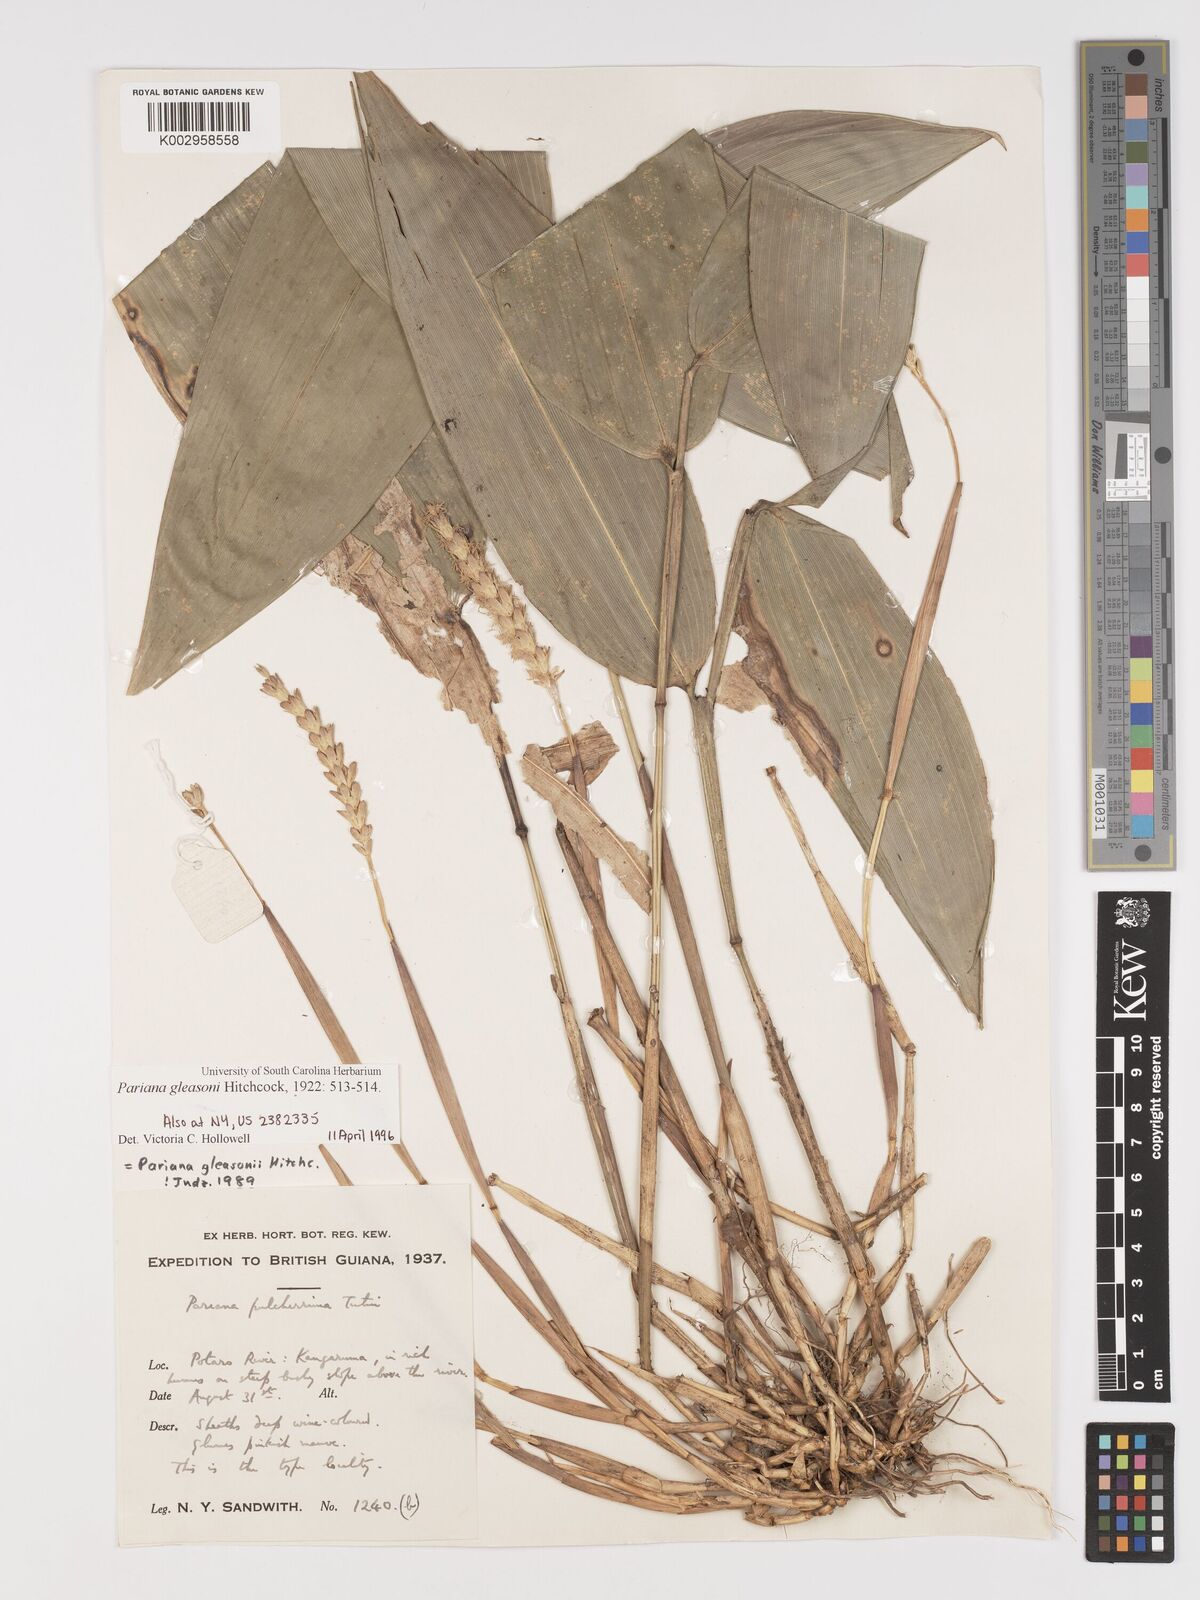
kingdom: Plantae
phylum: Tracheophyta
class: Liliopsida
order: Poales
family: Poaceae
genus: Pariana
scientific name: Pariana radiciflora
